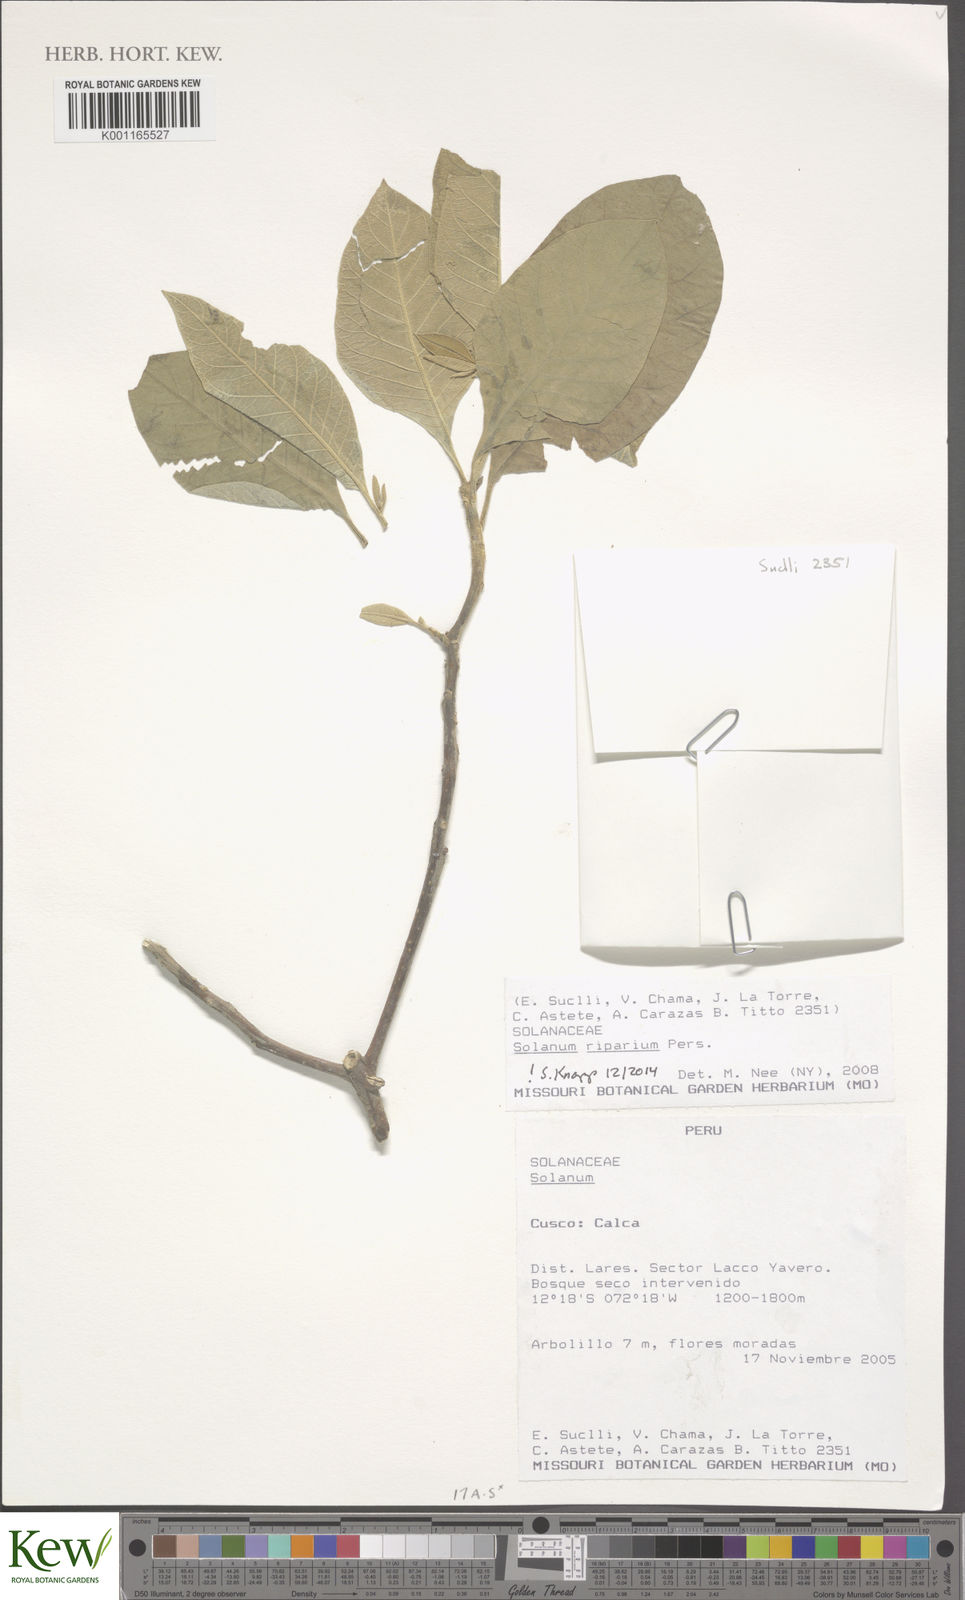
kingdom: Plantae
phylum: Tracheophyta
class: Magnoliopsida
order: Solanales
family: Solanaceae
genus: Solanum
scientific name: Solanum riparium
